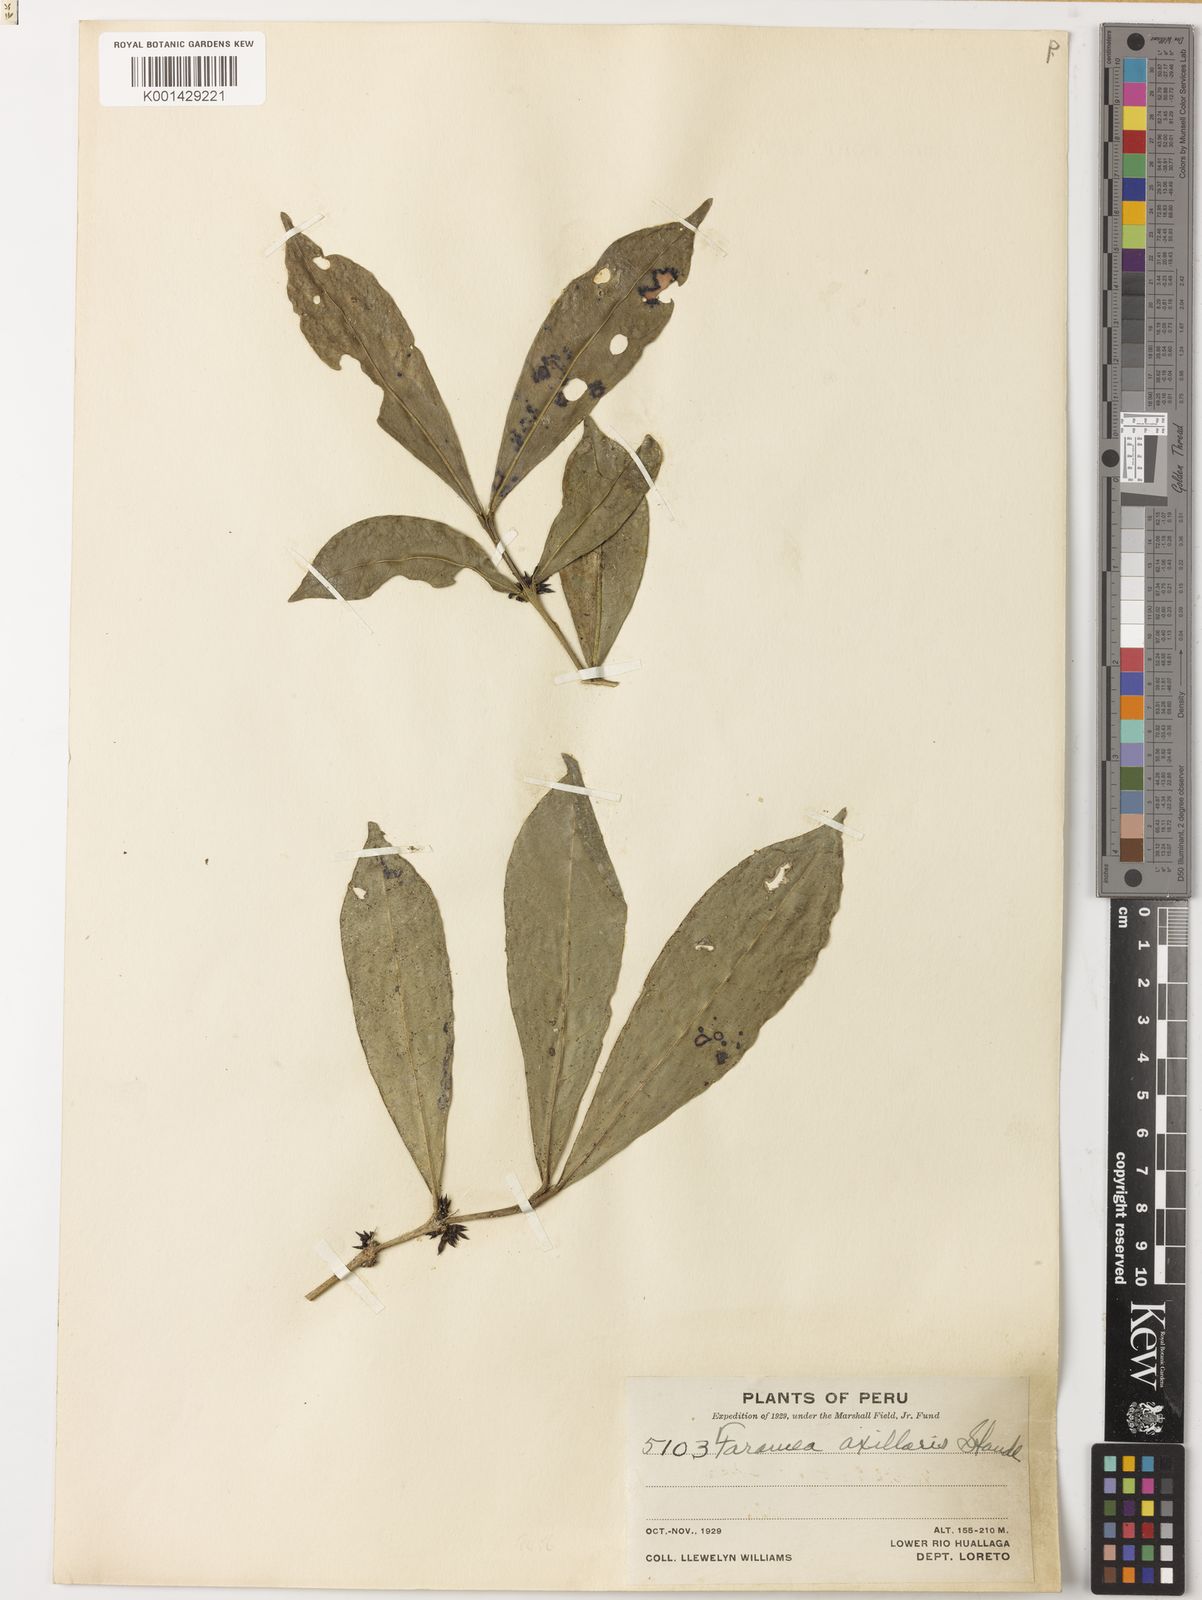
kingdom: Plantae
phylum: Tracheophyta
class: Magnoliopsida
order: Gentianales
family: Rubiaceae
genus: Faramea
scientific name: Faramea axillaris
